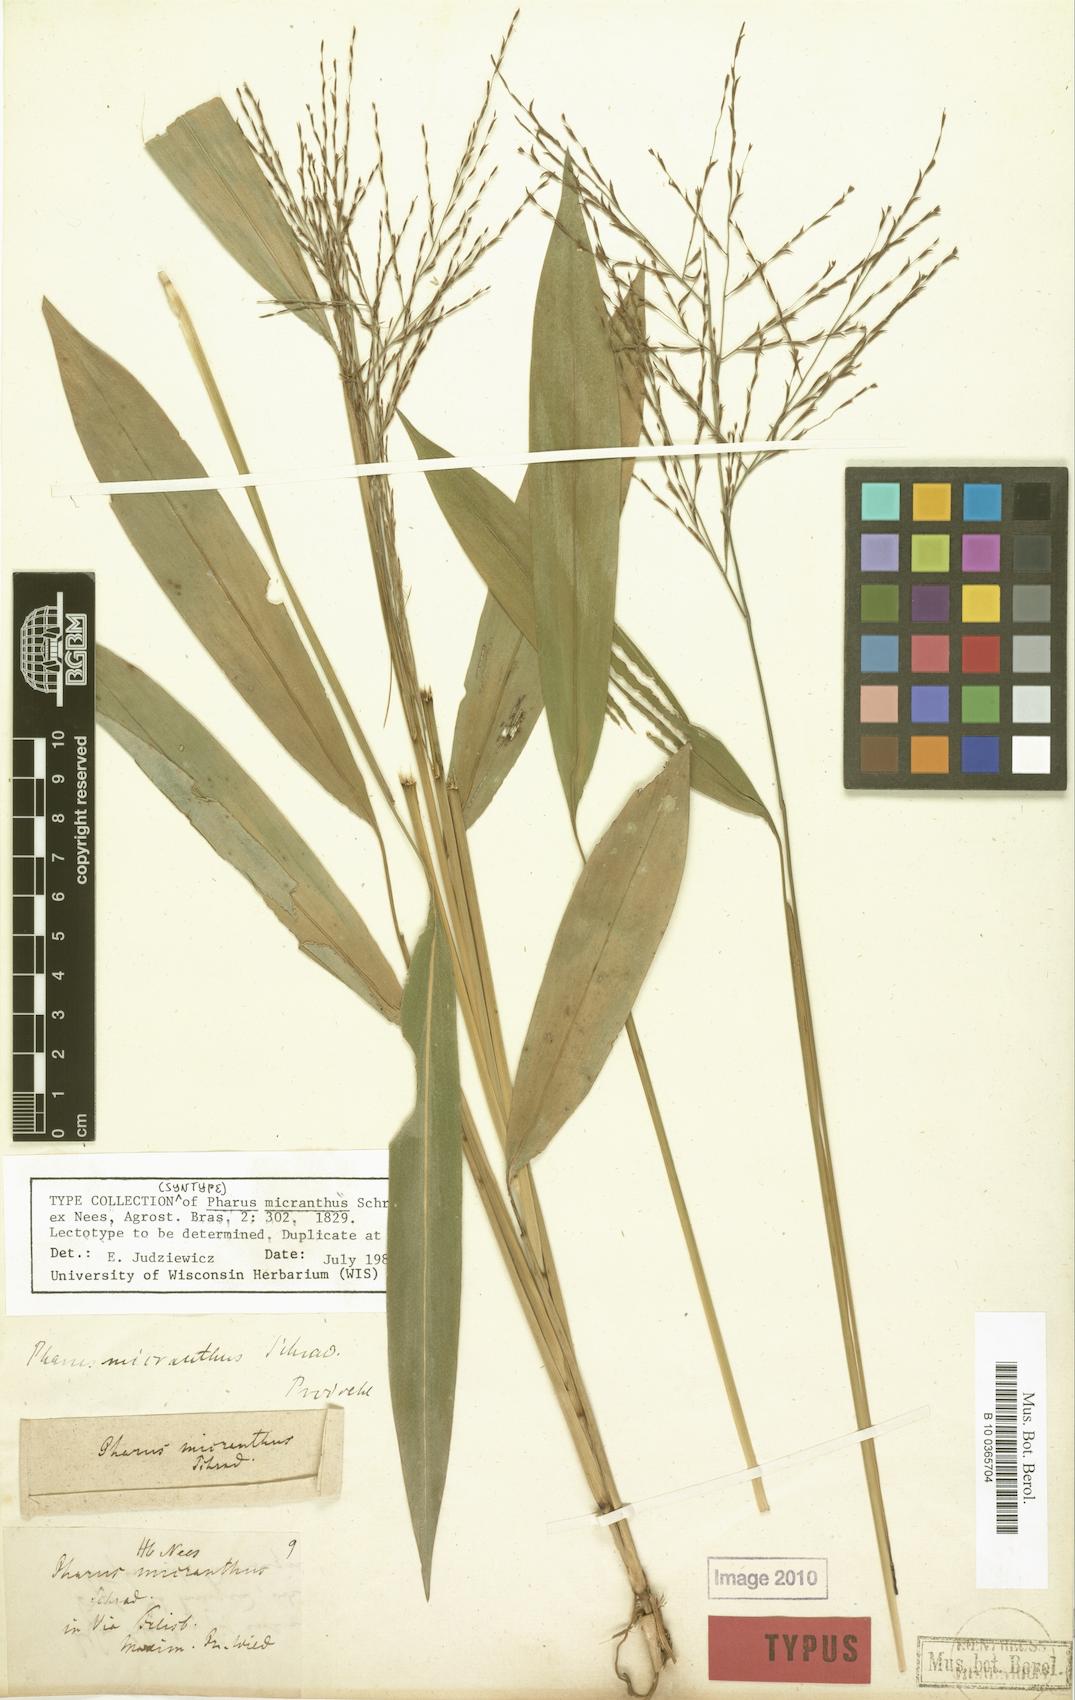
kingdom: Plantae
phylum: Tracheophyta
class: Liliopsida
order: Poales
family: Poaceae
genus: Pharus
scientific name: Pharus lappulaceus
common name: Creeping leafstalk grass
